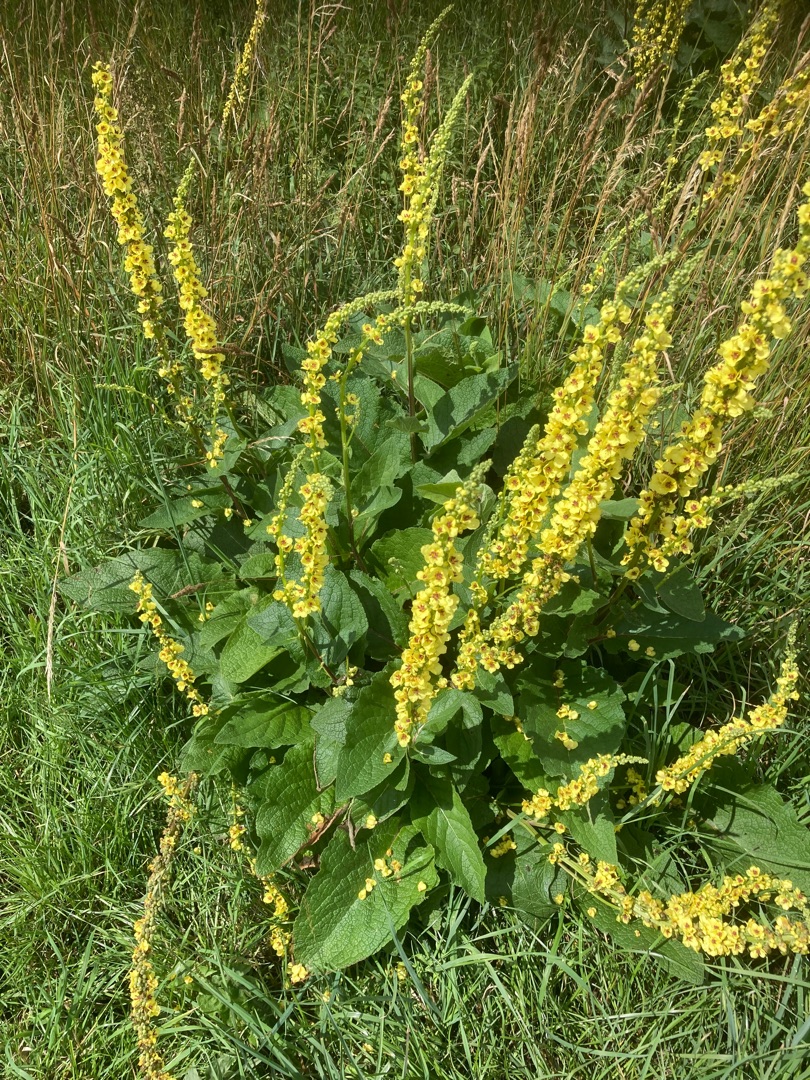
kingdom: Plantae
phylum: Tracheophyta
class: Magnoliopsida
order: Lamiales
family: Scrophulariaceae
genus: Verbascum
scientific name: Verbascum nigrum
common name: Mørk kongelys
